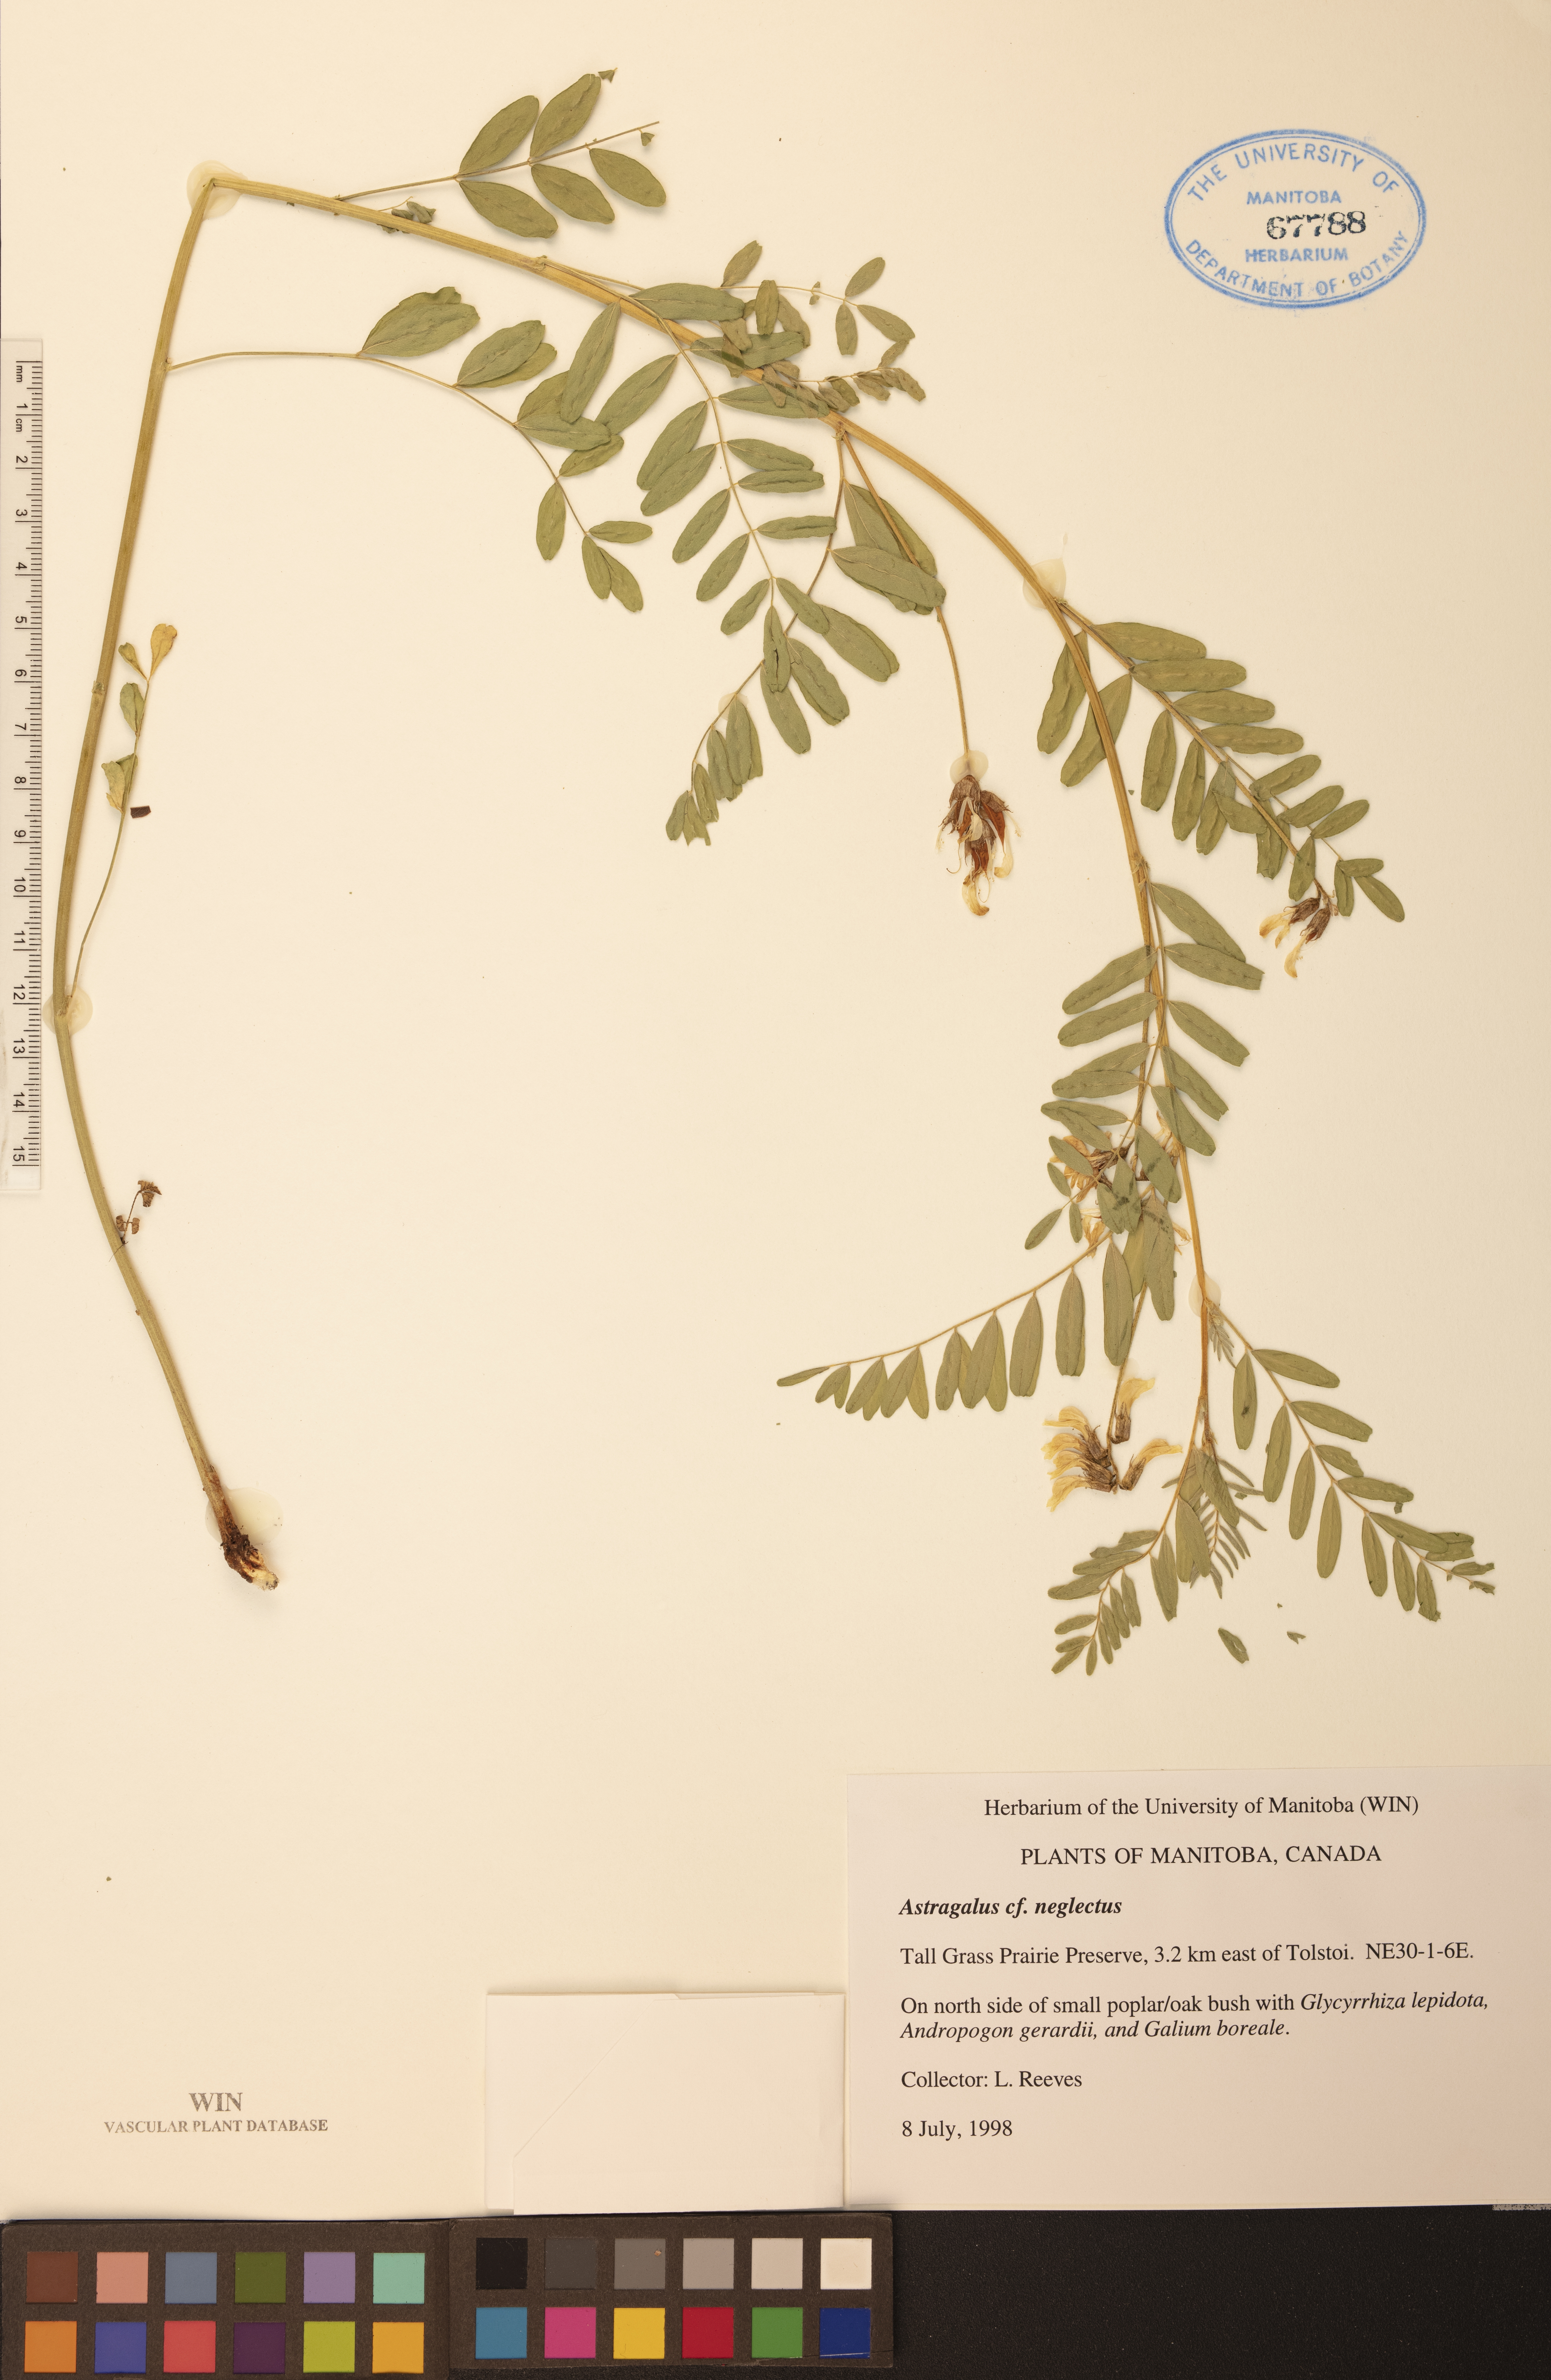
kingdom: Plantae
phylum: Tracheophyta
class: Magnoliopsida
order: Fabales
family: Fabaceae
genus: Astragalus
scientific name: Astragalus neglectus
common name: Cooper's milk-vetch
